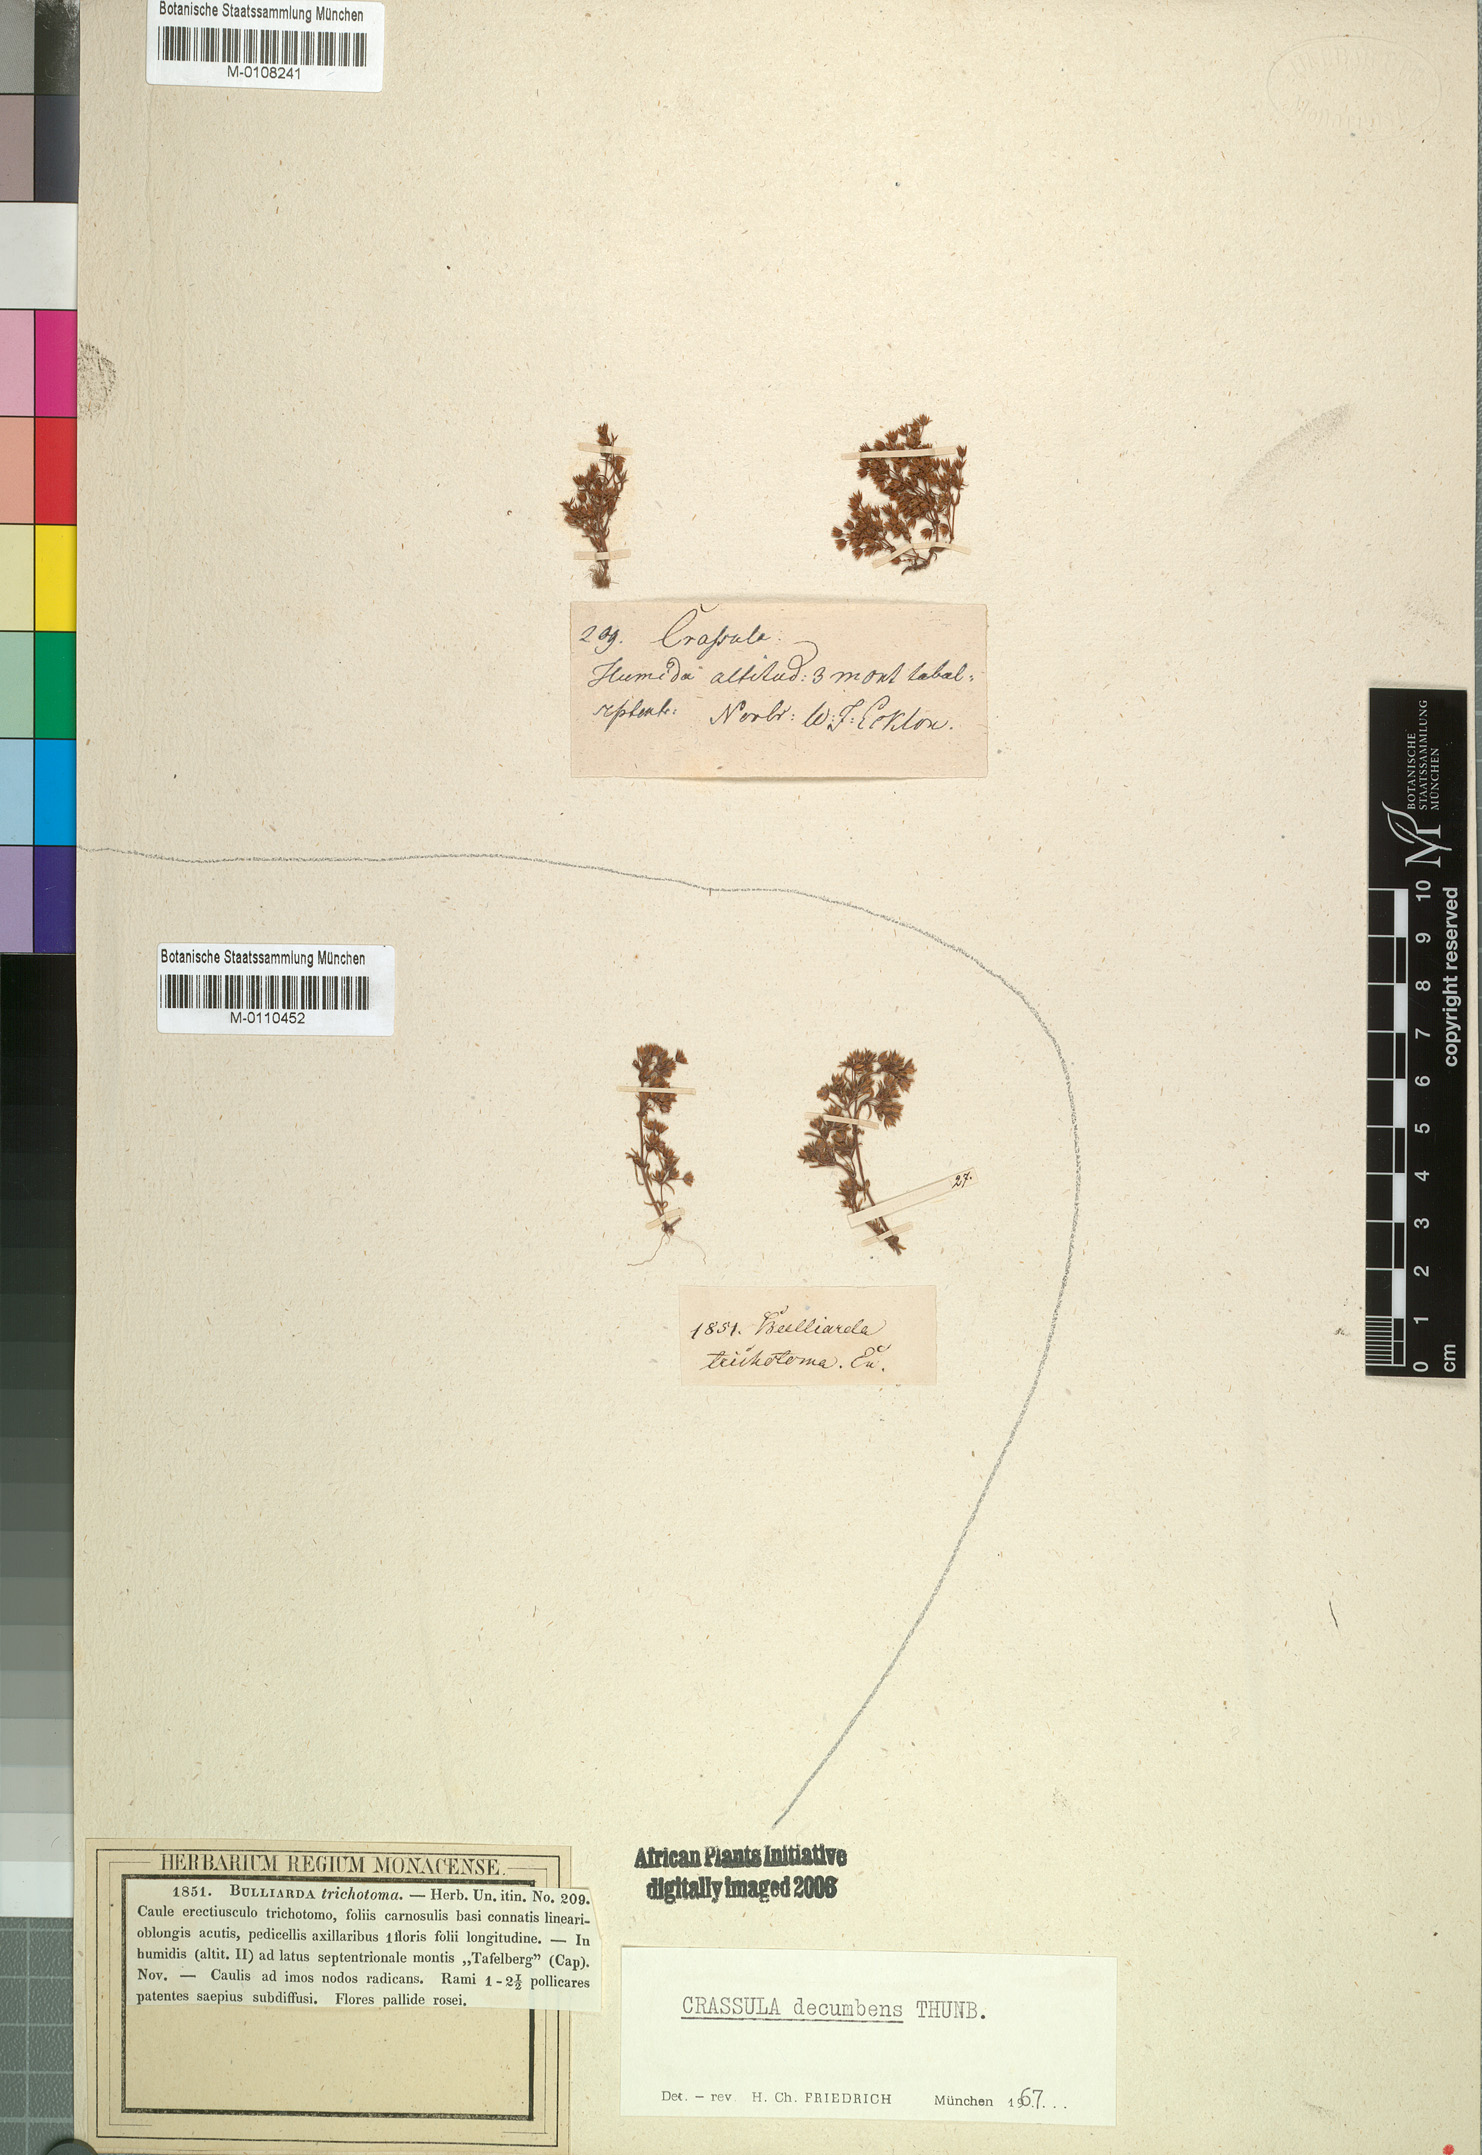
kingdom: Plantae
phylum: Tracheophyta
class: Magnoliopsida
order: Saxifragales
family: Crassulaceae
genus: Crassula
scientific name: Crassula decumbens
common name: Scilly pigmyweed
